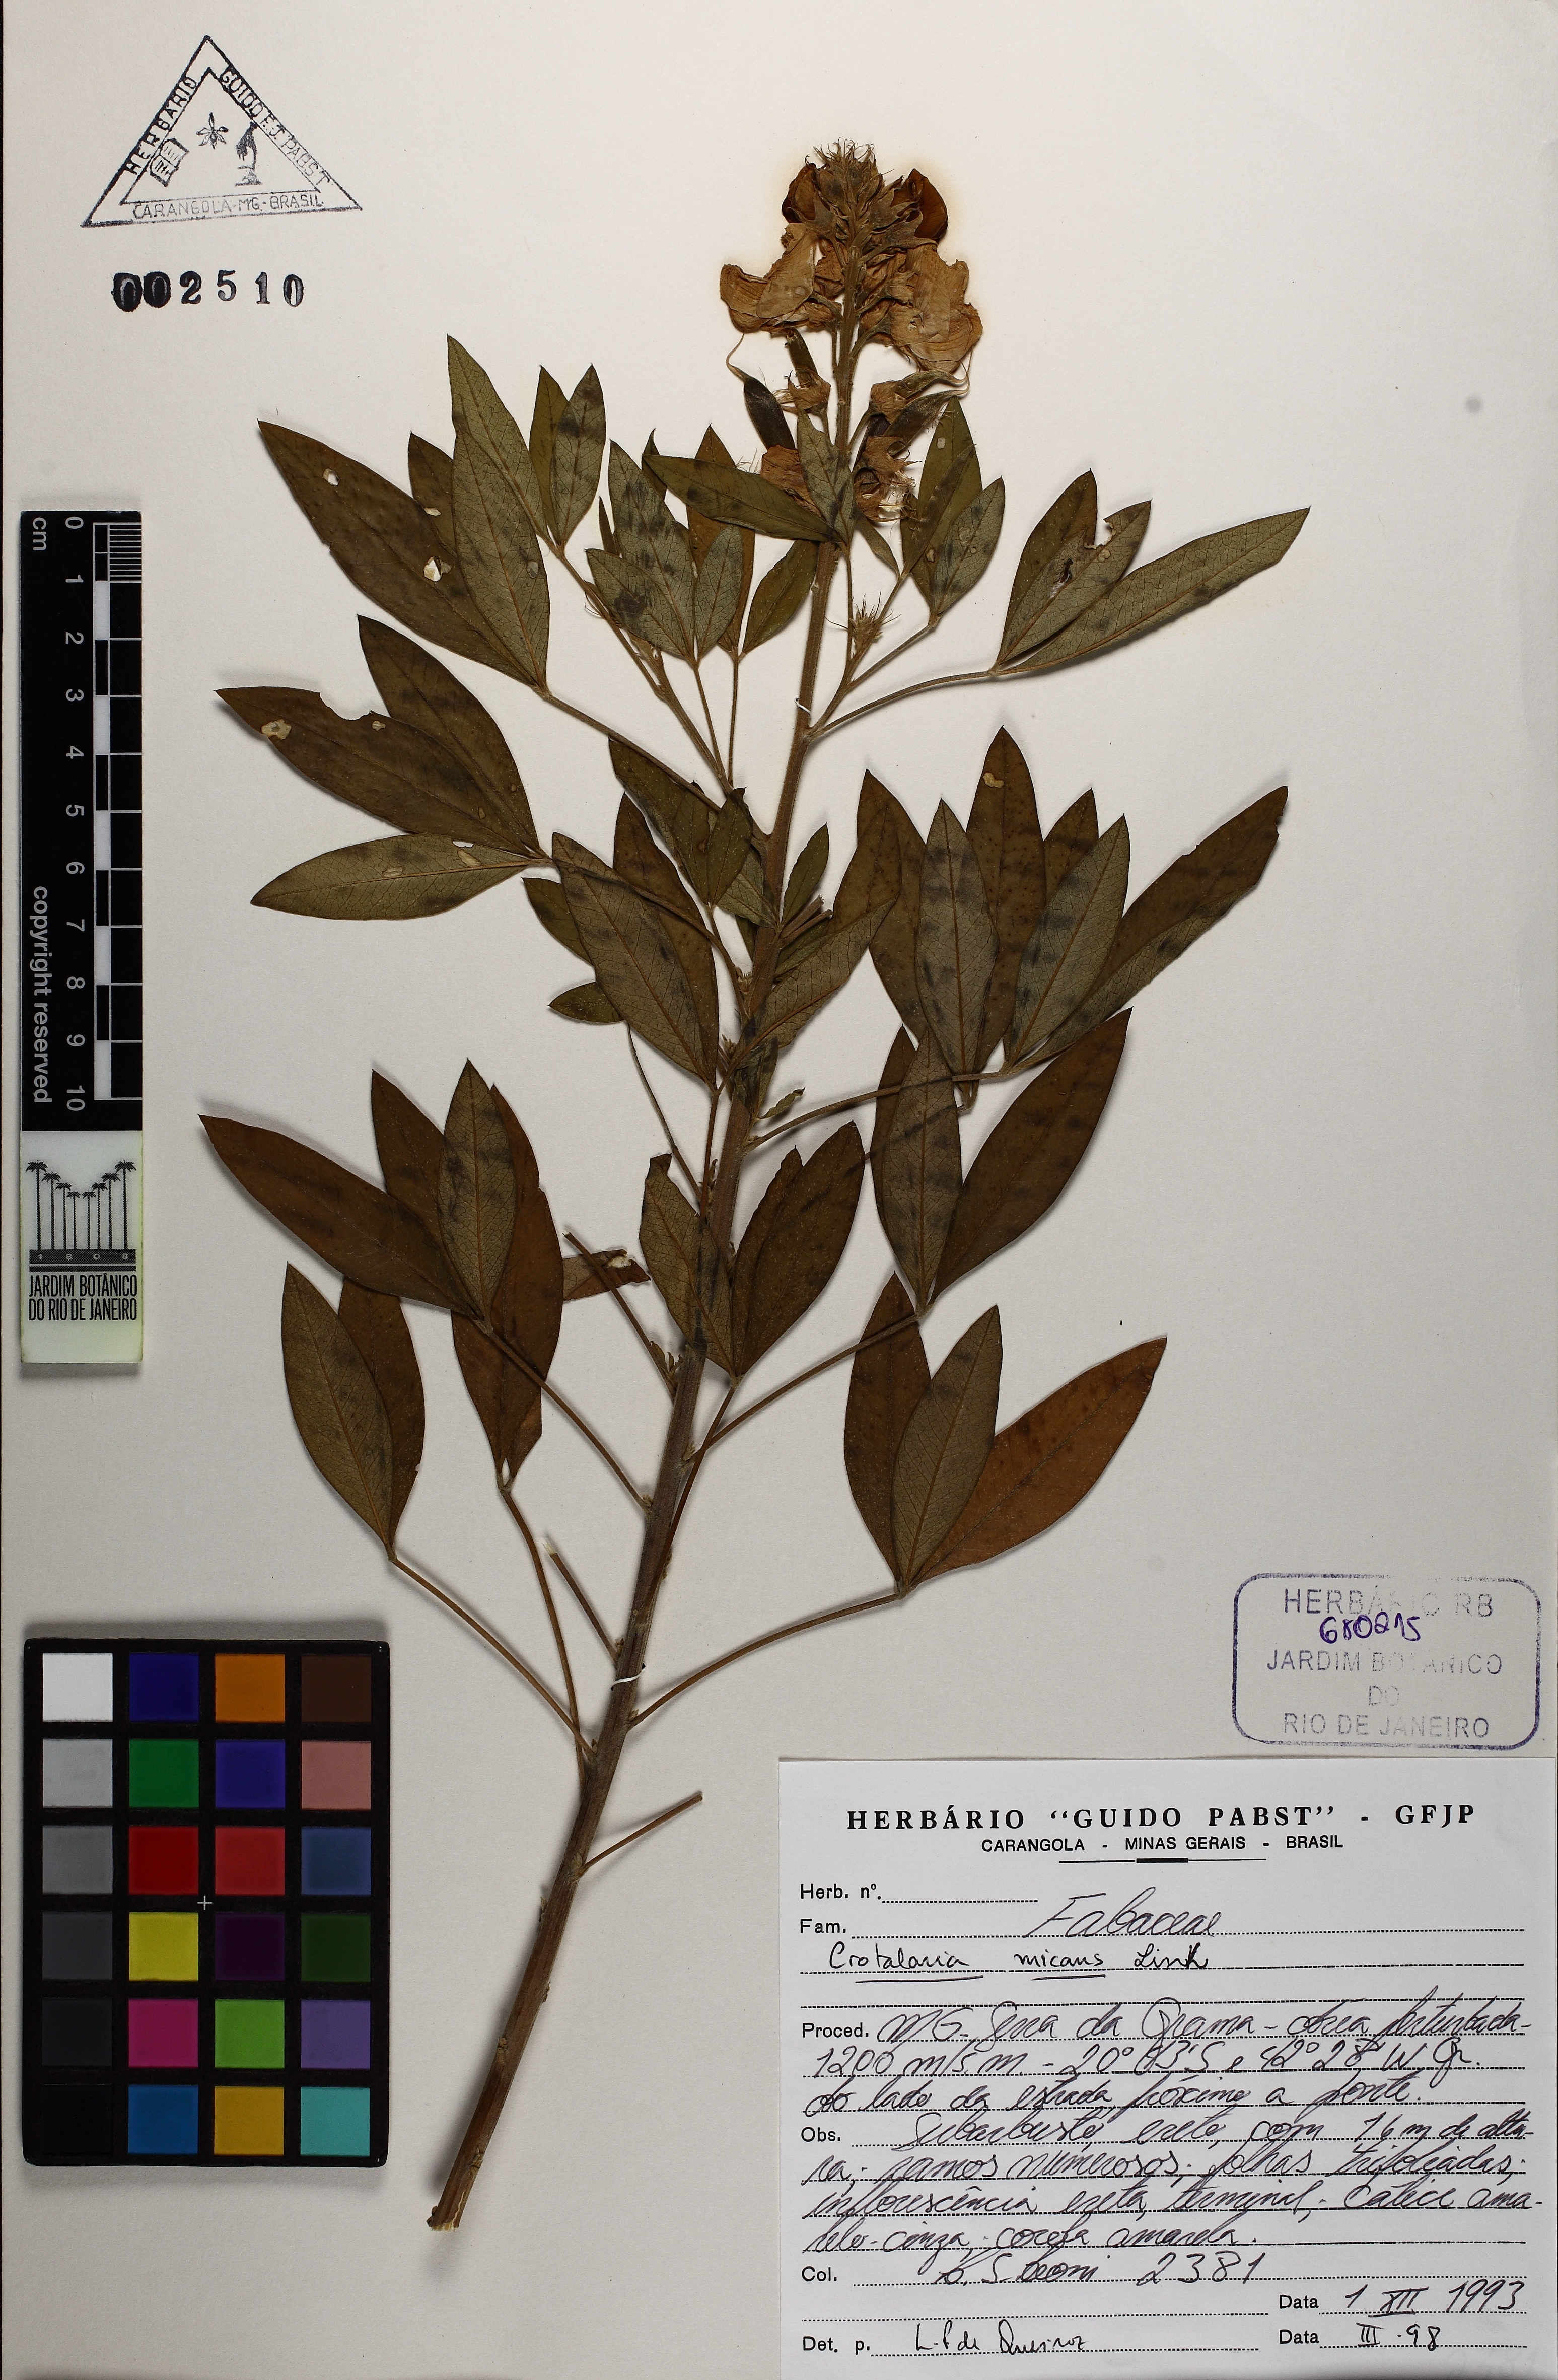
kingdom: Plantae
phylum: Tracheophyta
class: Magnoliopsida
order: Fabales
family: Fabaceae
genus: Crotalaria
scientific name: Crotalaria micans
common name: Caracas rattlebox
